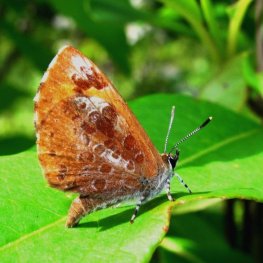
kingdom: Animalia
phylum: Arthropoda
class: Insecta
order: Lepidoptera
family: Lycaenidae
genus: Feniseca
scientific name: Feniseca tarquinius
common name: Harvester
